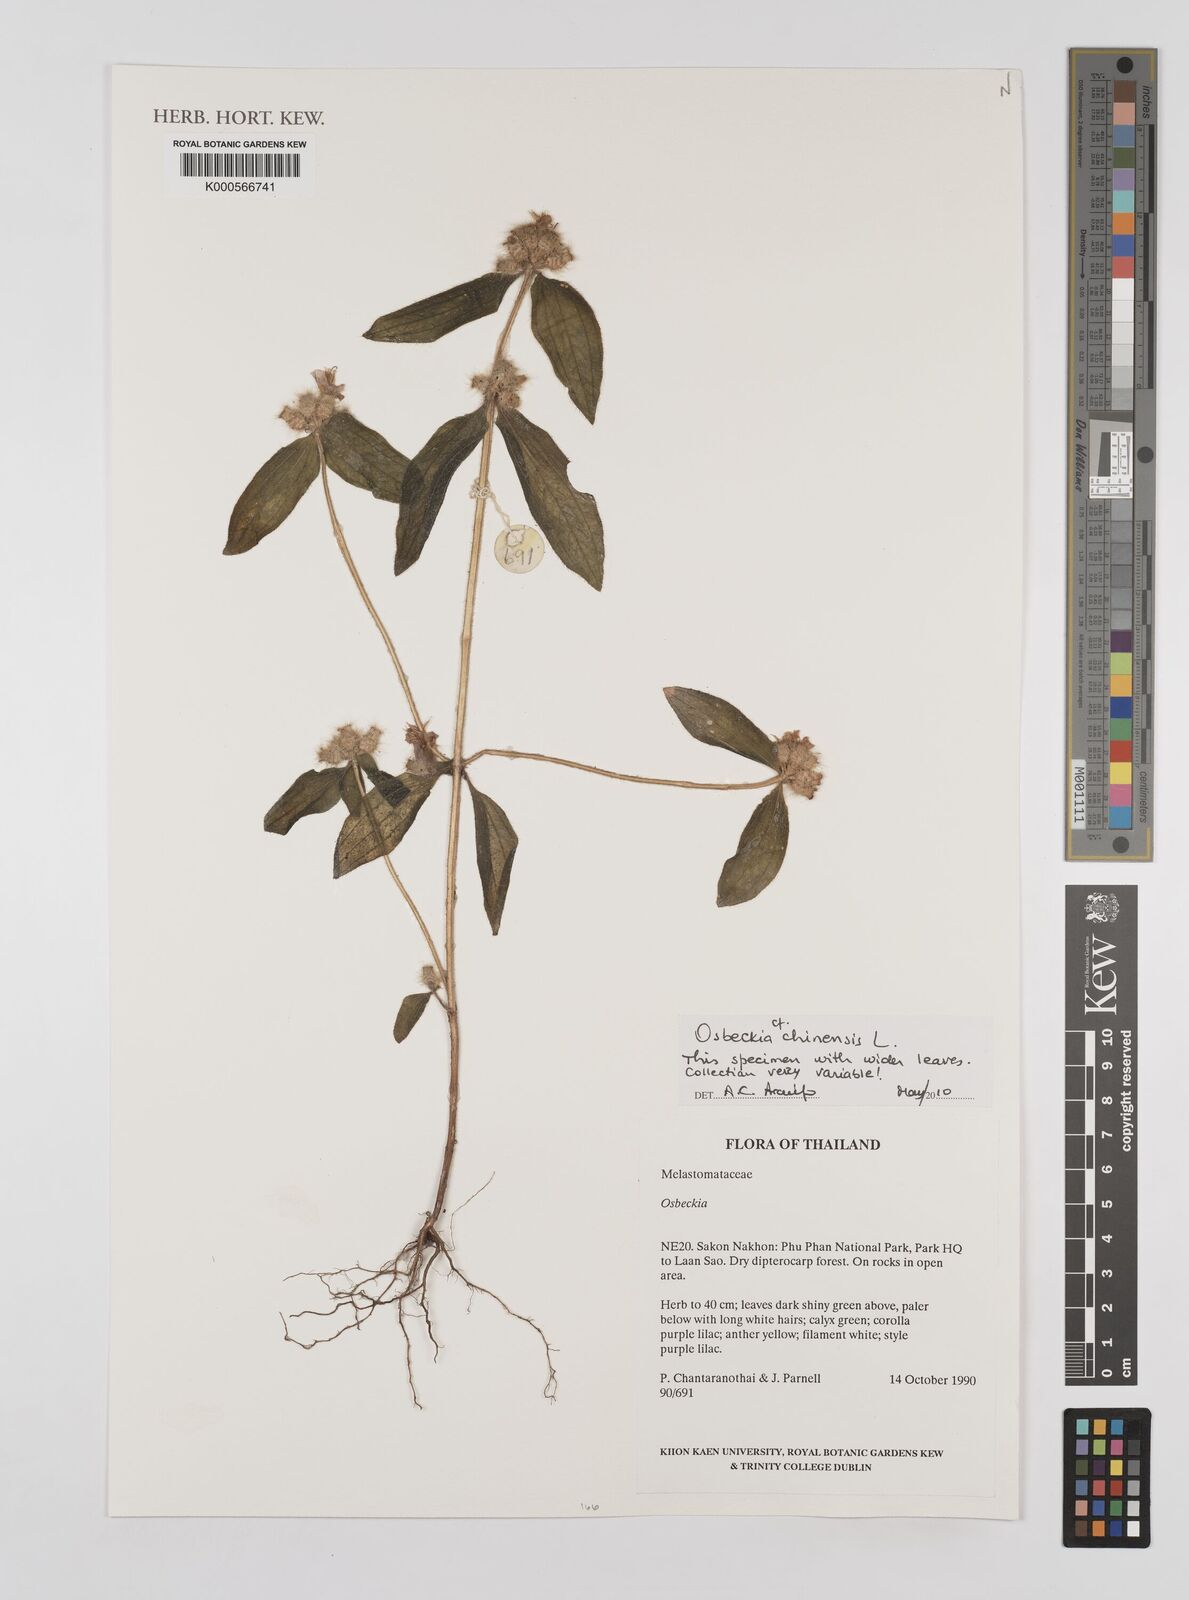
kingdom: Plantae
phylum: Tracheophyta
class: Magnoliopsida
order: Myrtales
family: Melastomataceae
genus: Osbeckia
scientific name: Osbeckia chinensis
